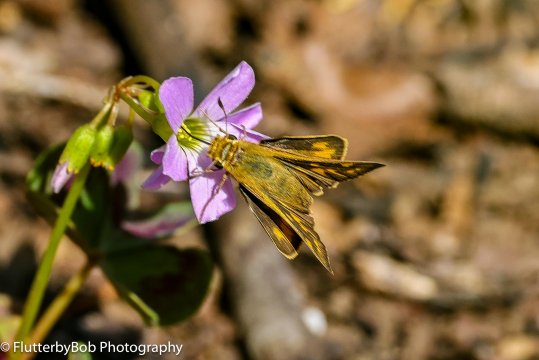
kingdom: Animalia
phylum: Arthropoda
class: Insecta
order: Lepidoptera
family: Hesperiidae
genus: Atalopedes
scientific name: Atalopedes campestris
